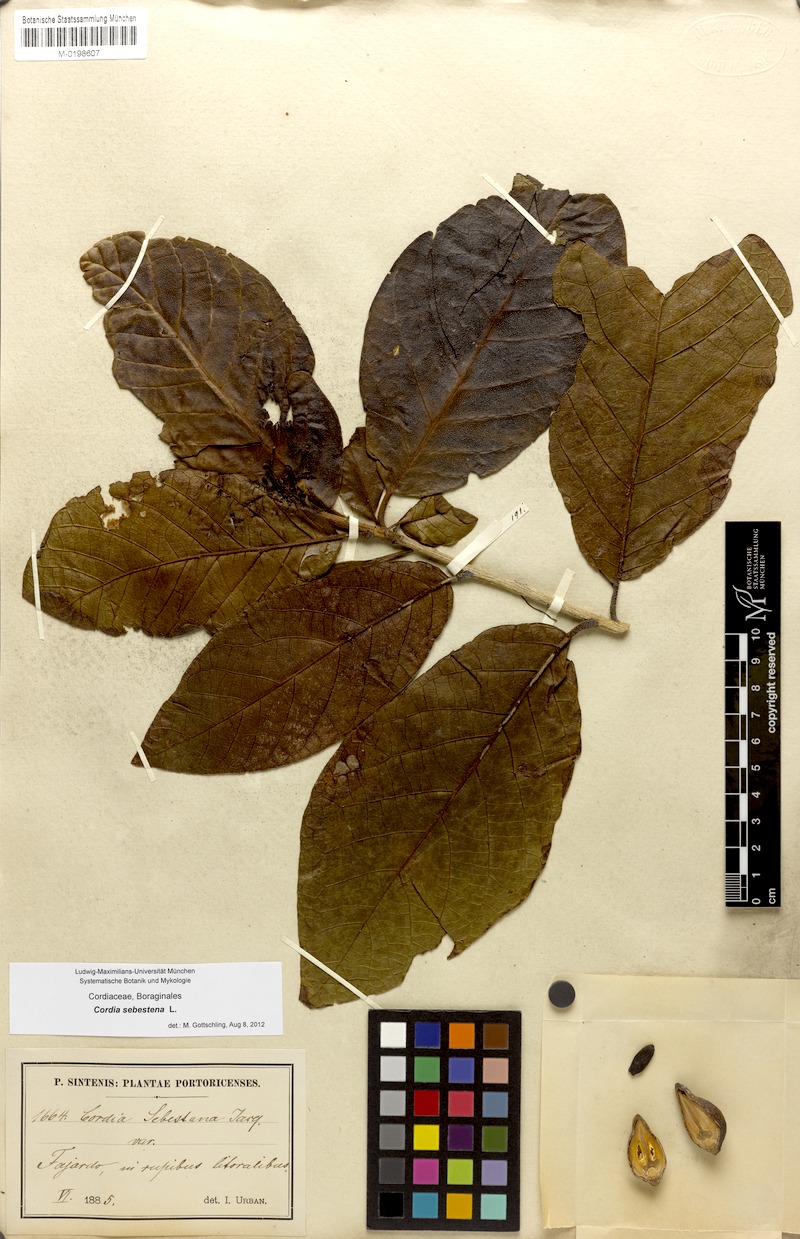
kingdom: Plantae
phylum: Tracheophyta
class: Magnoliopsida
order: Boraginales
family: Cordiaceae
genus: Cordia
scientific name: Cordia sebestena
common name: Largeleaf geigertree
